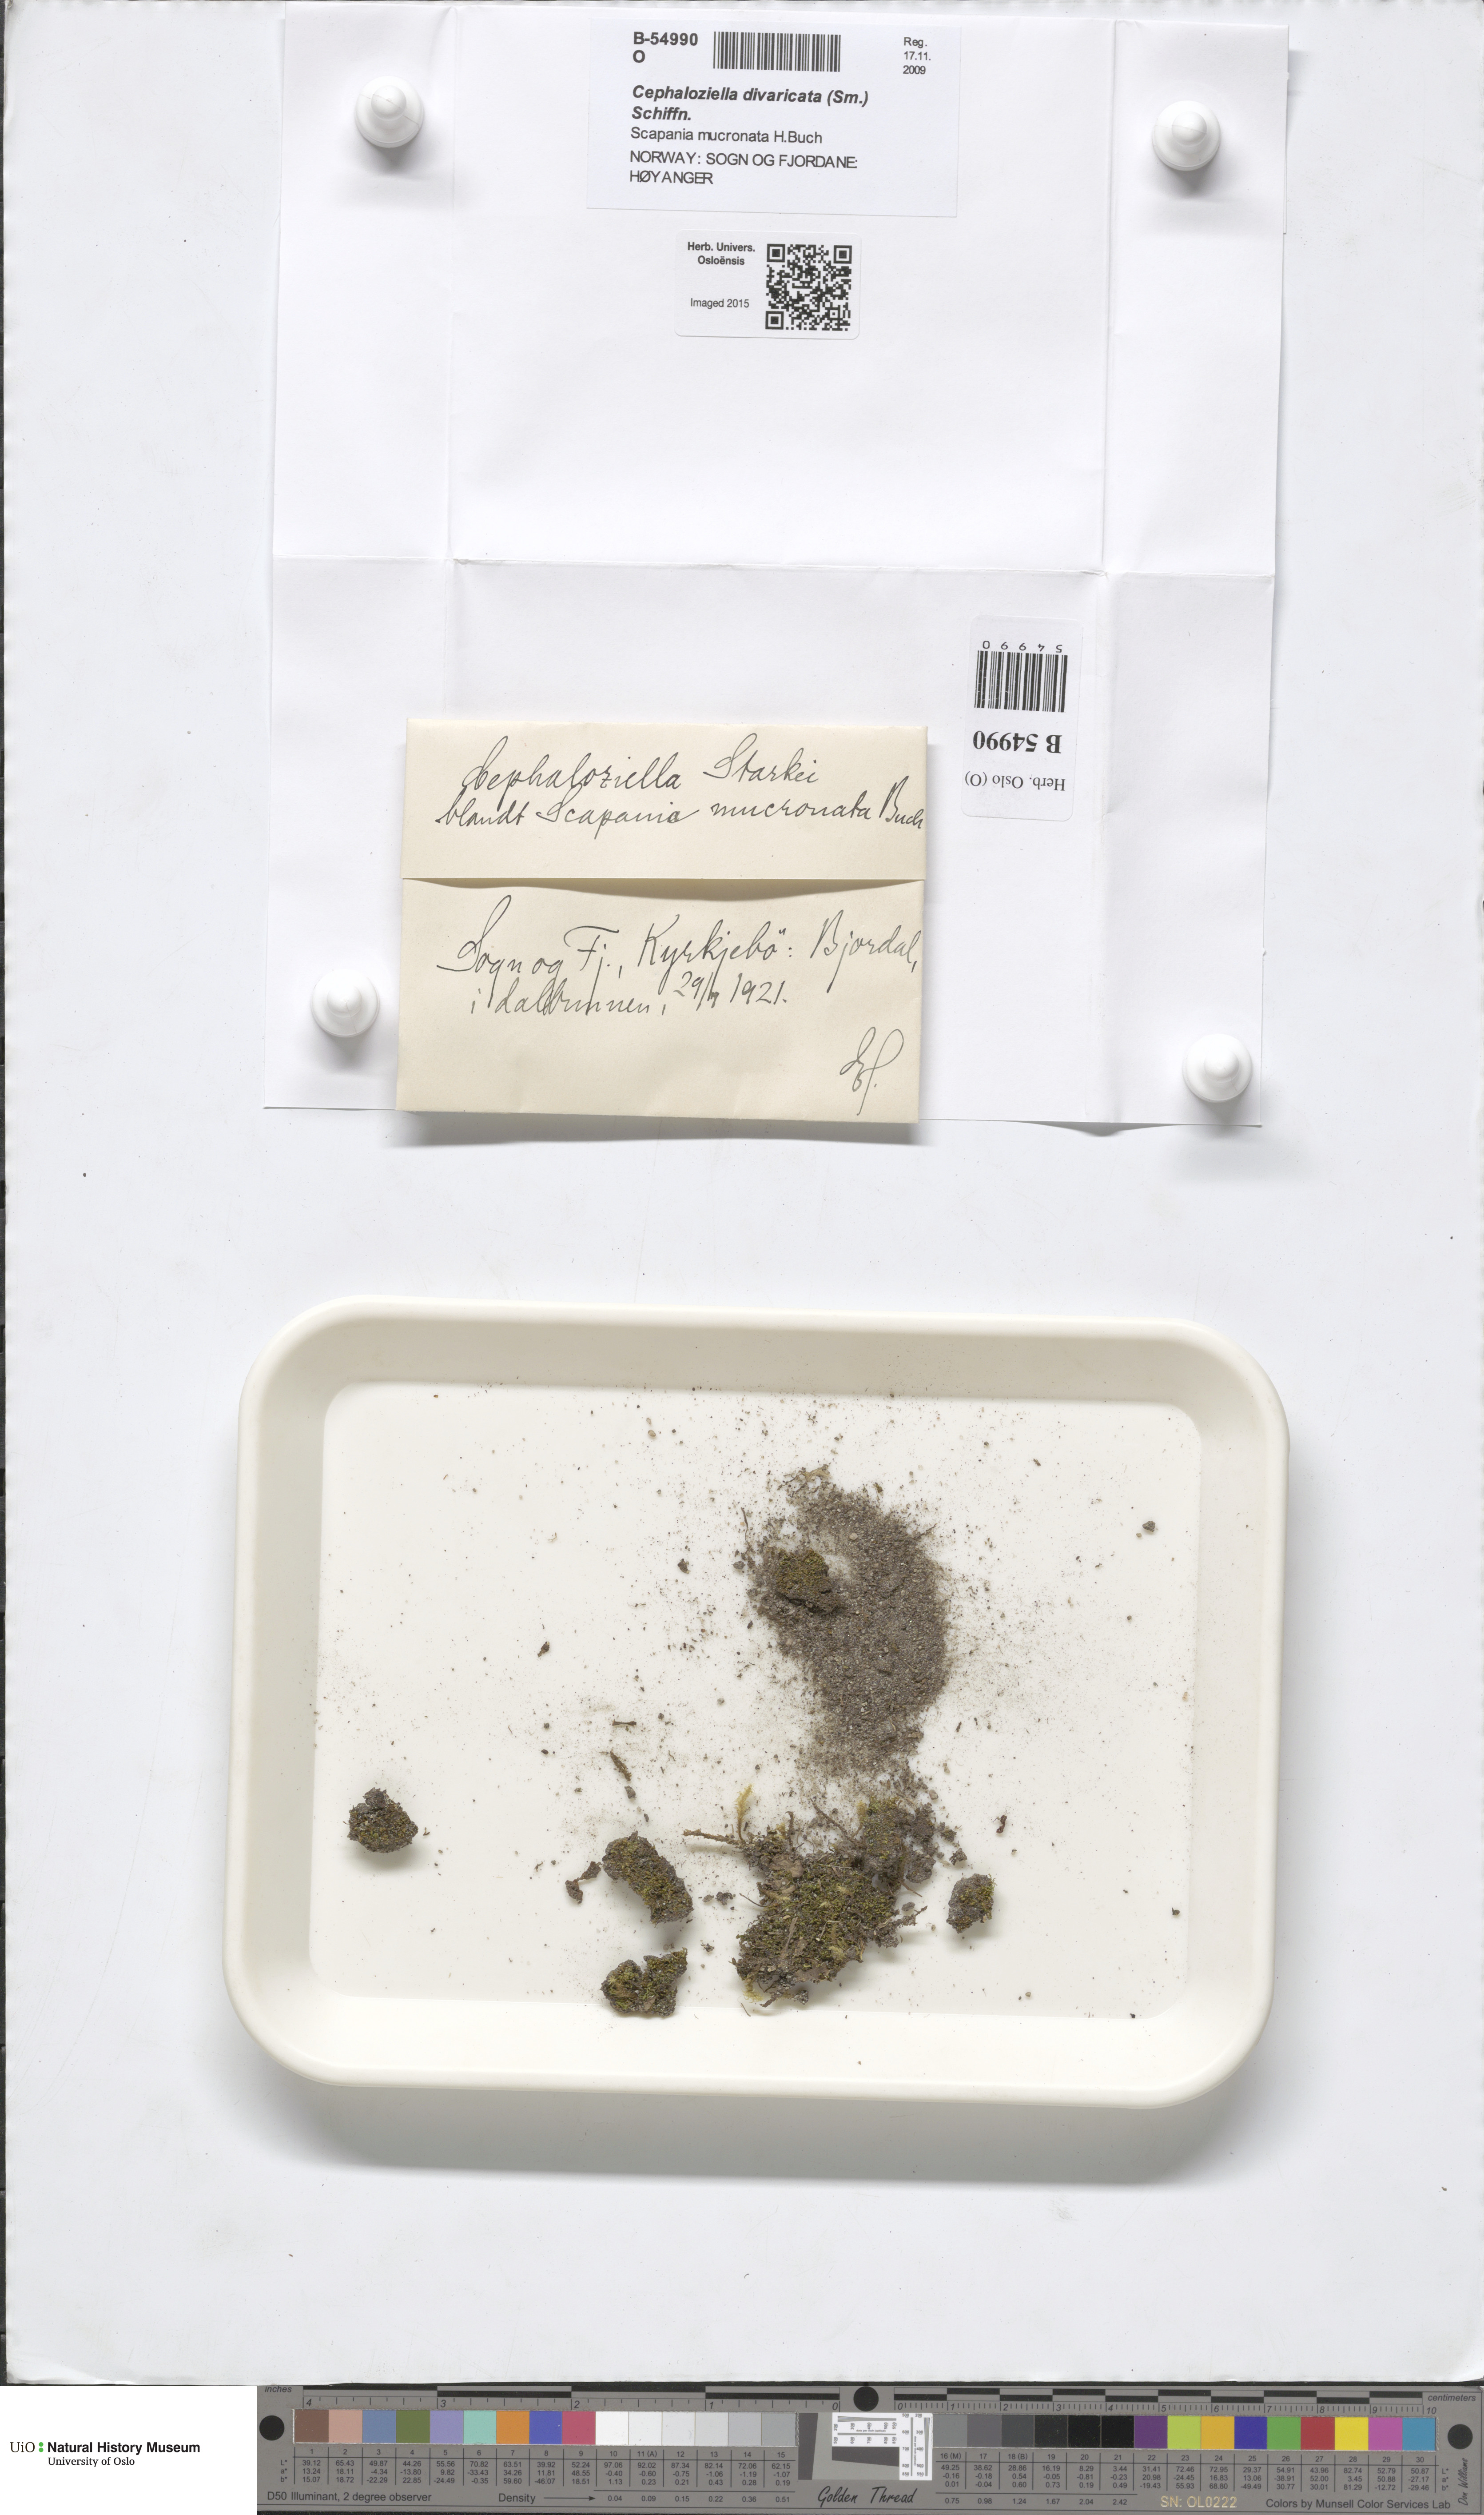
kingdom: Plantae
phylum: Marchantiophyta
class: Jungermanniopsida
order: Jungermanniales
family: Cephaloziellaceae
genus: Cephaloziella
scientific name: Cephaloziella divaricata
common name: Spreading threadwort
